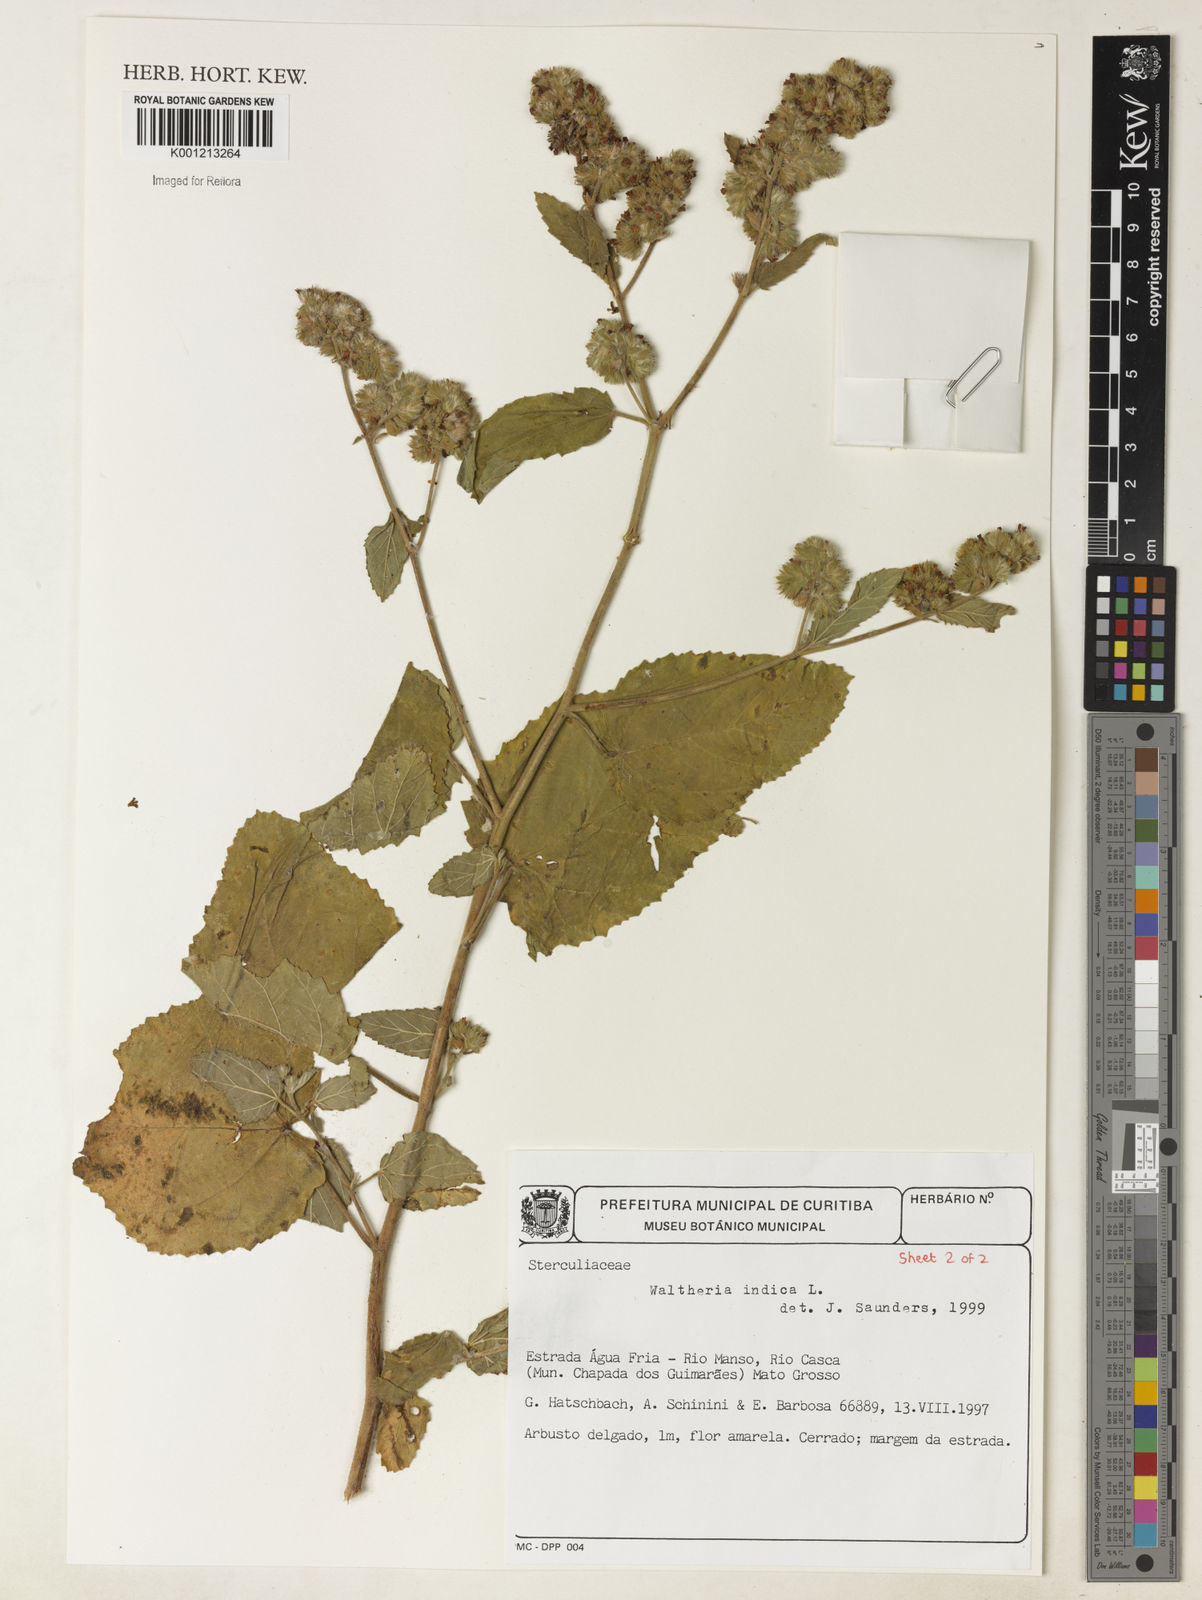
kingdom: Plantae
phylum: Tracheophyta
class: Magnoliopsida
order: Malvales
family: Malvaceae
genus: Waltheria
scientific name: Waltheria indica
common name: Leather-coat
